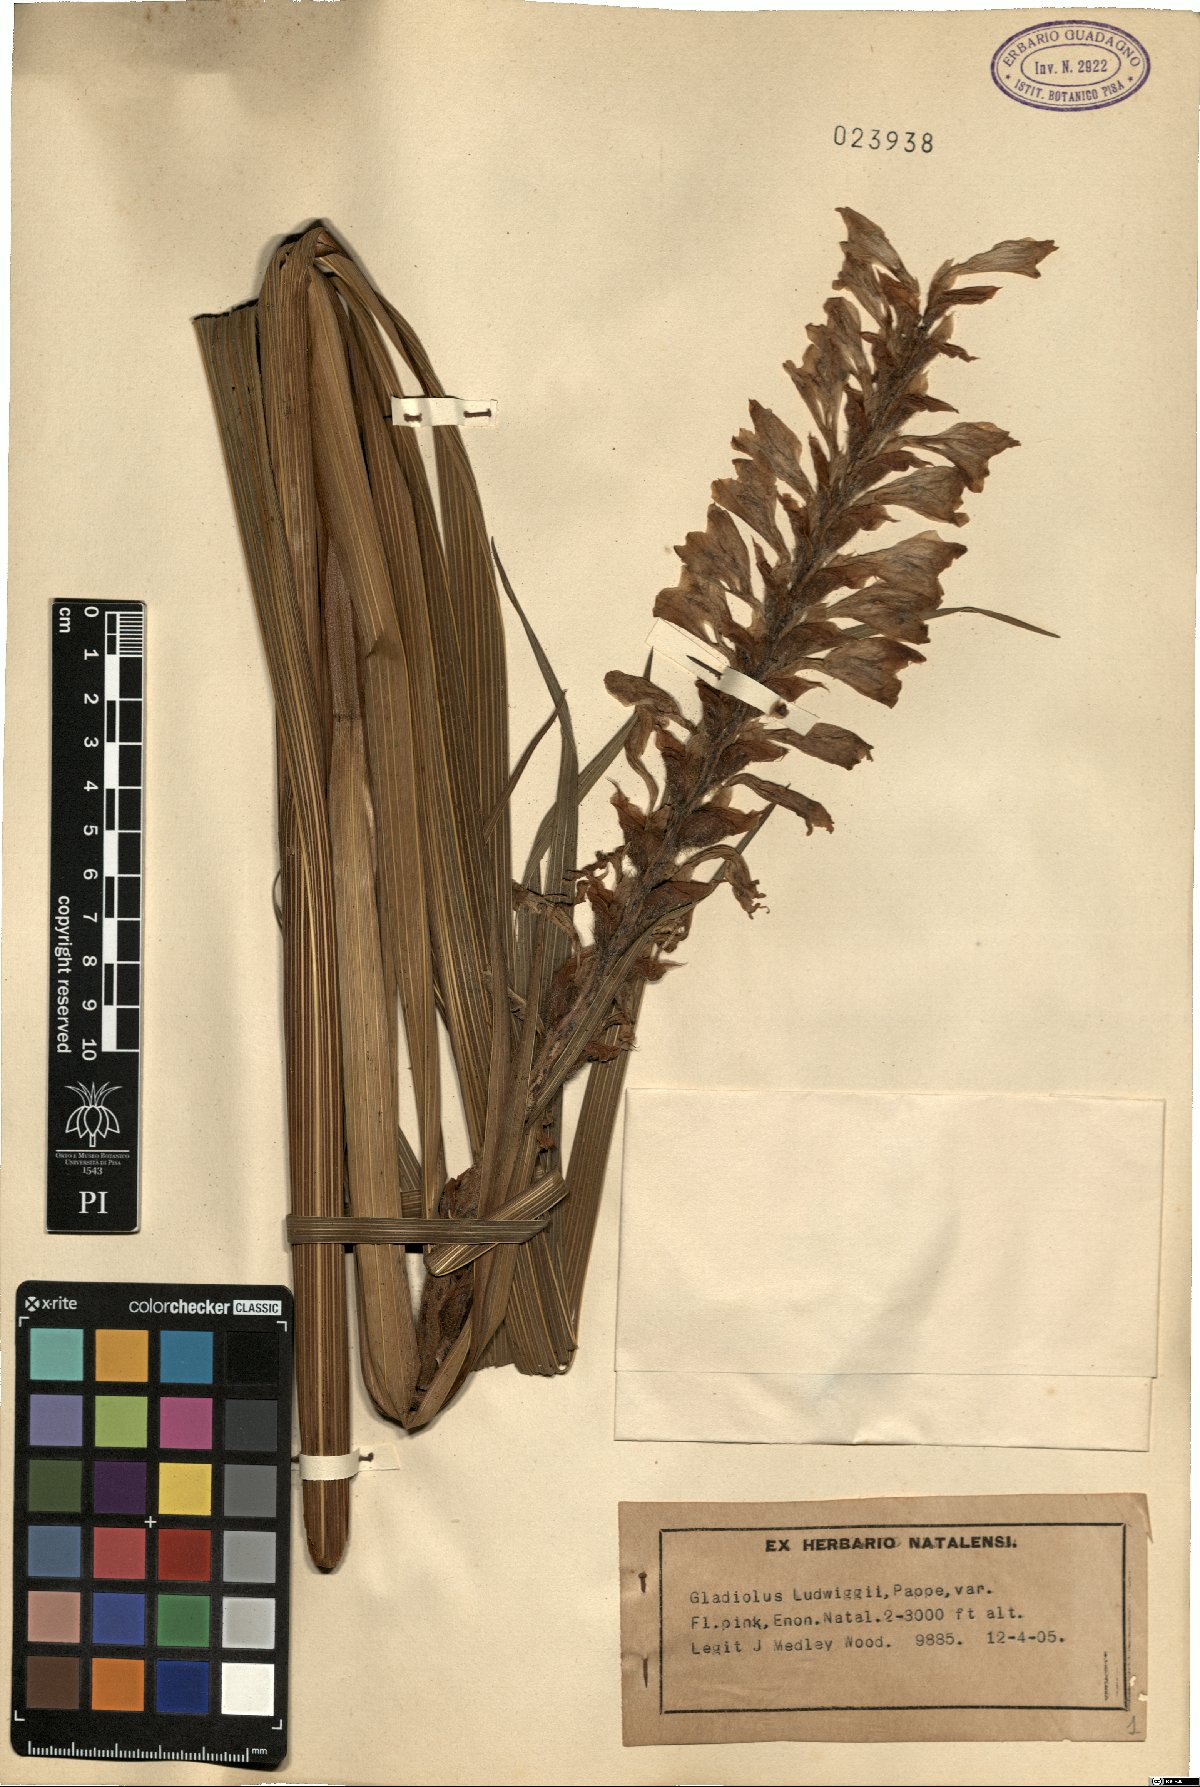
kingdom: Plantae
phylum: Tracheophyta
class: Liliopsida
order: Asparagales
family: Iridaceae
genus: Gladiolus
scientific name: Gladiolus sericeovillosus
